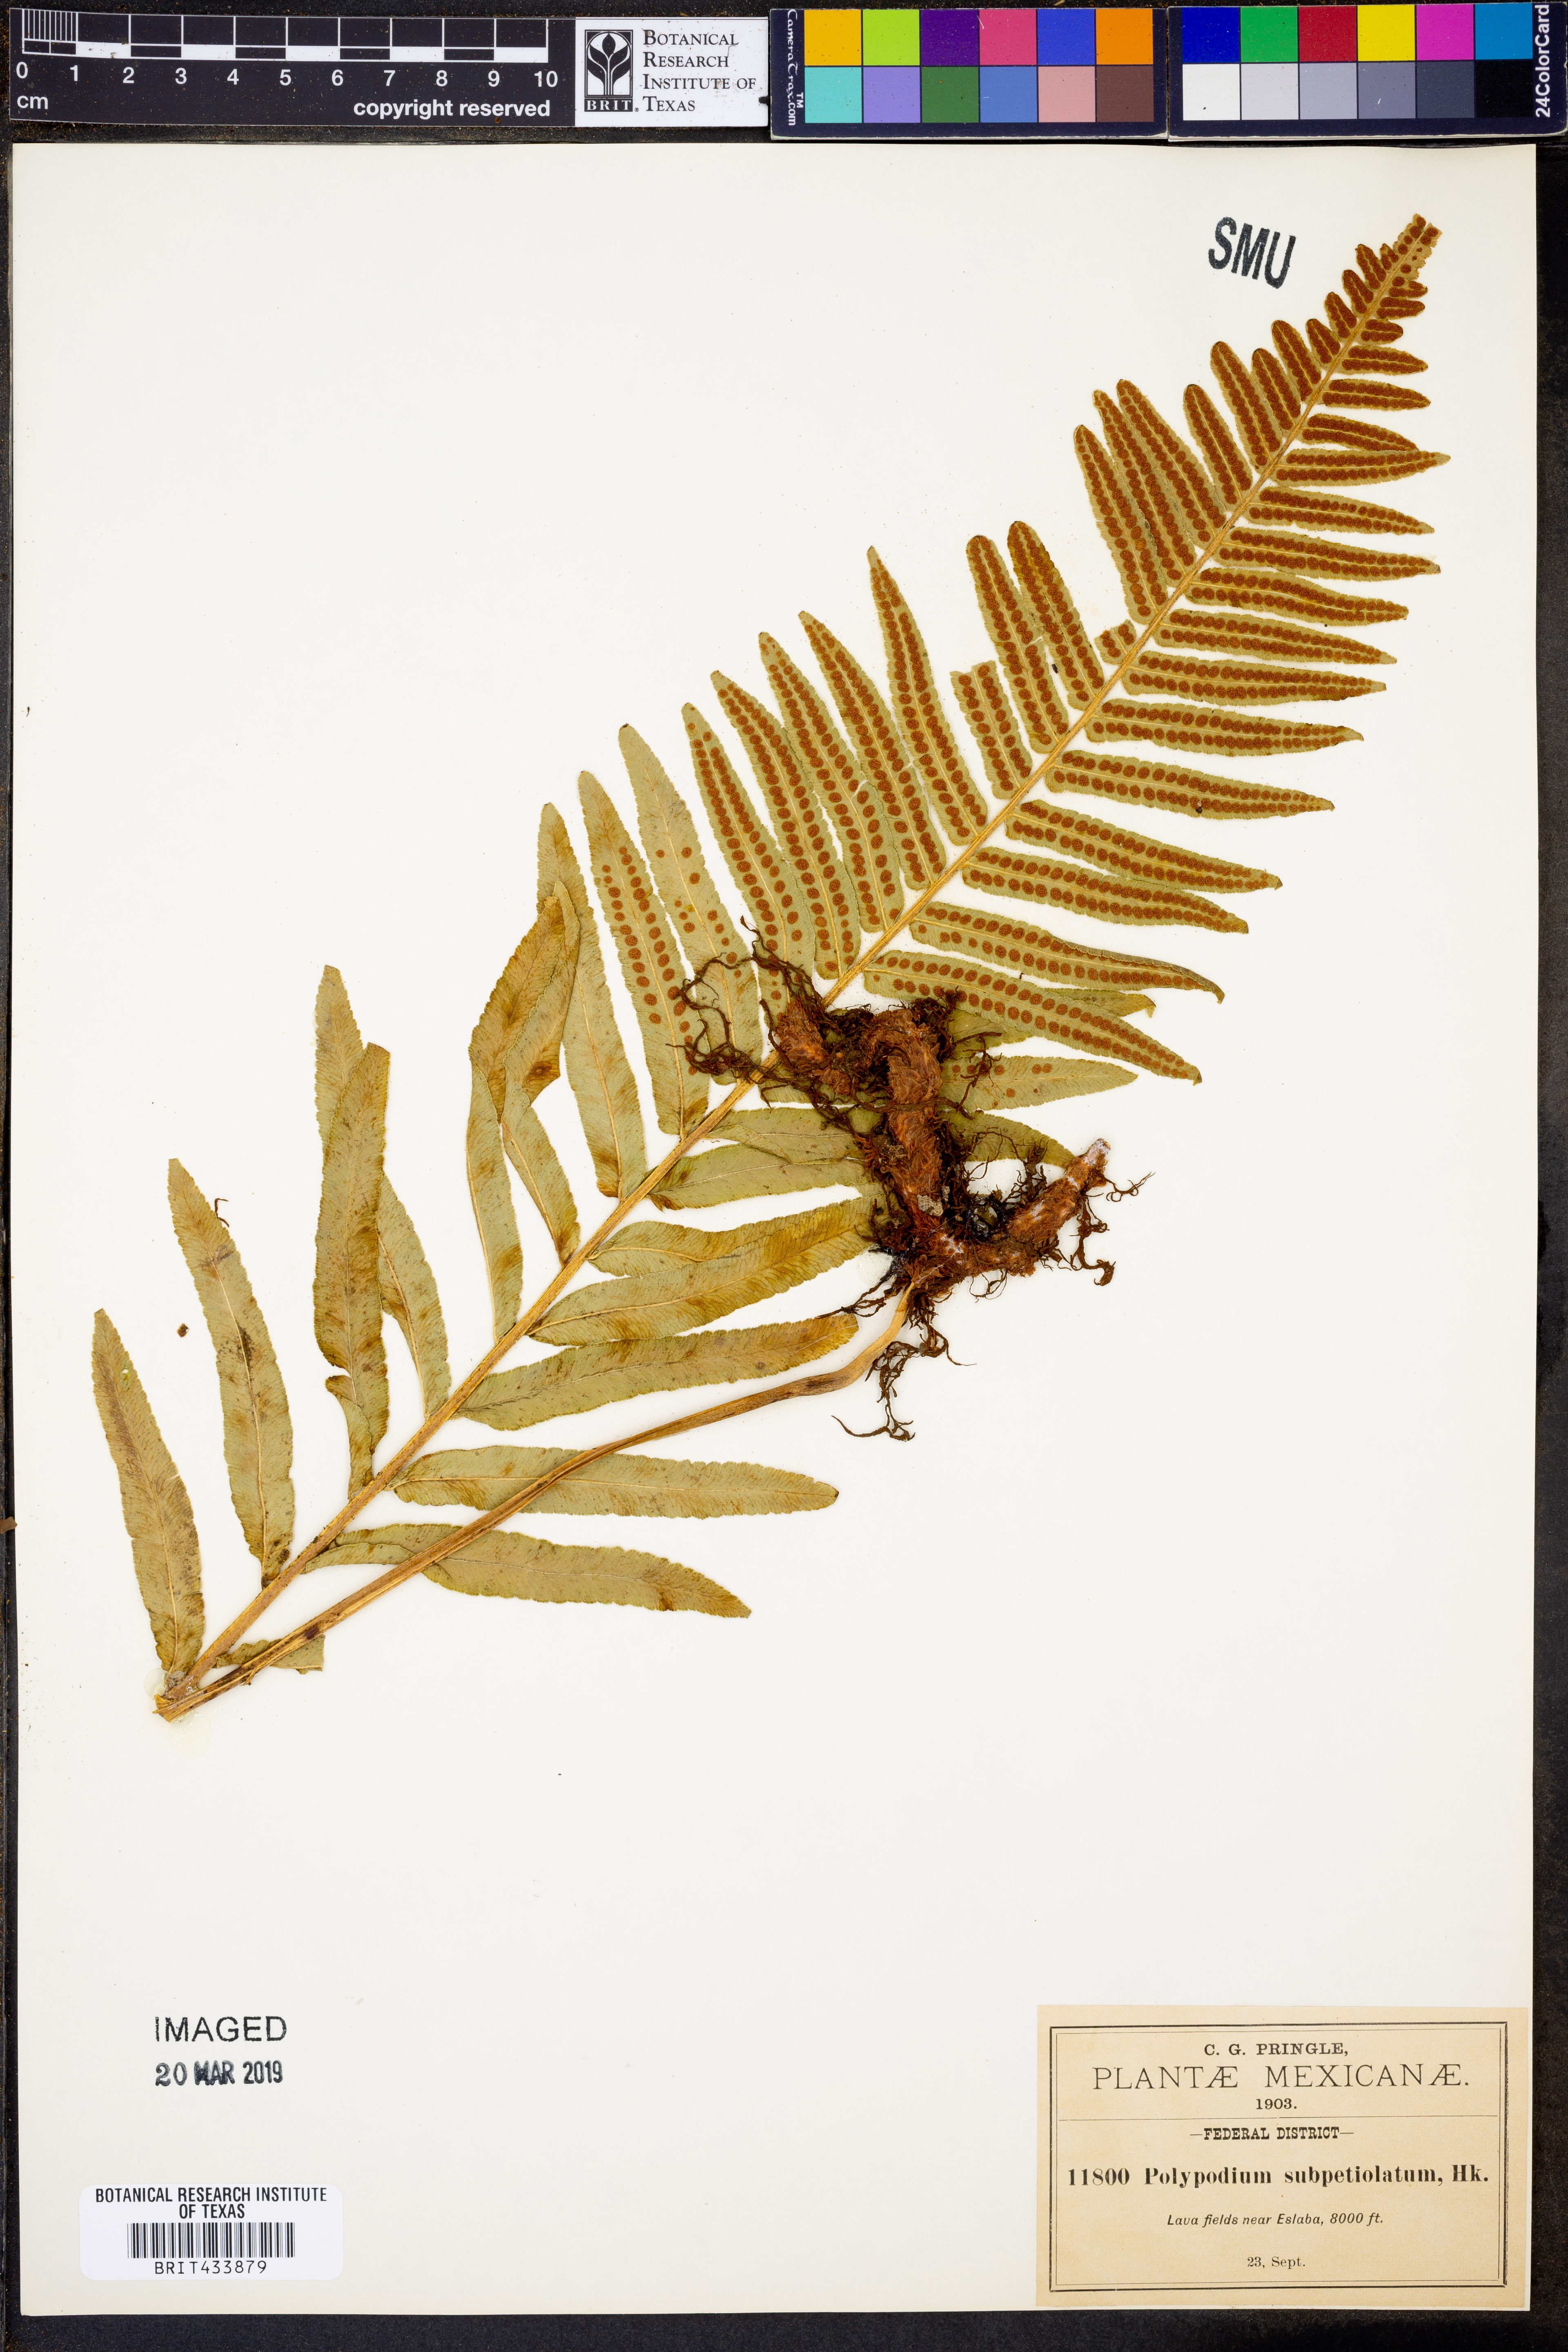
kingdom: Plantae
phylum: Tracheophyta
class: Polypodiopsida
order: Polypodiales
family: Polypodiaceae
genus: Polypodium
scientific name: Polypodium subpetiolatum
